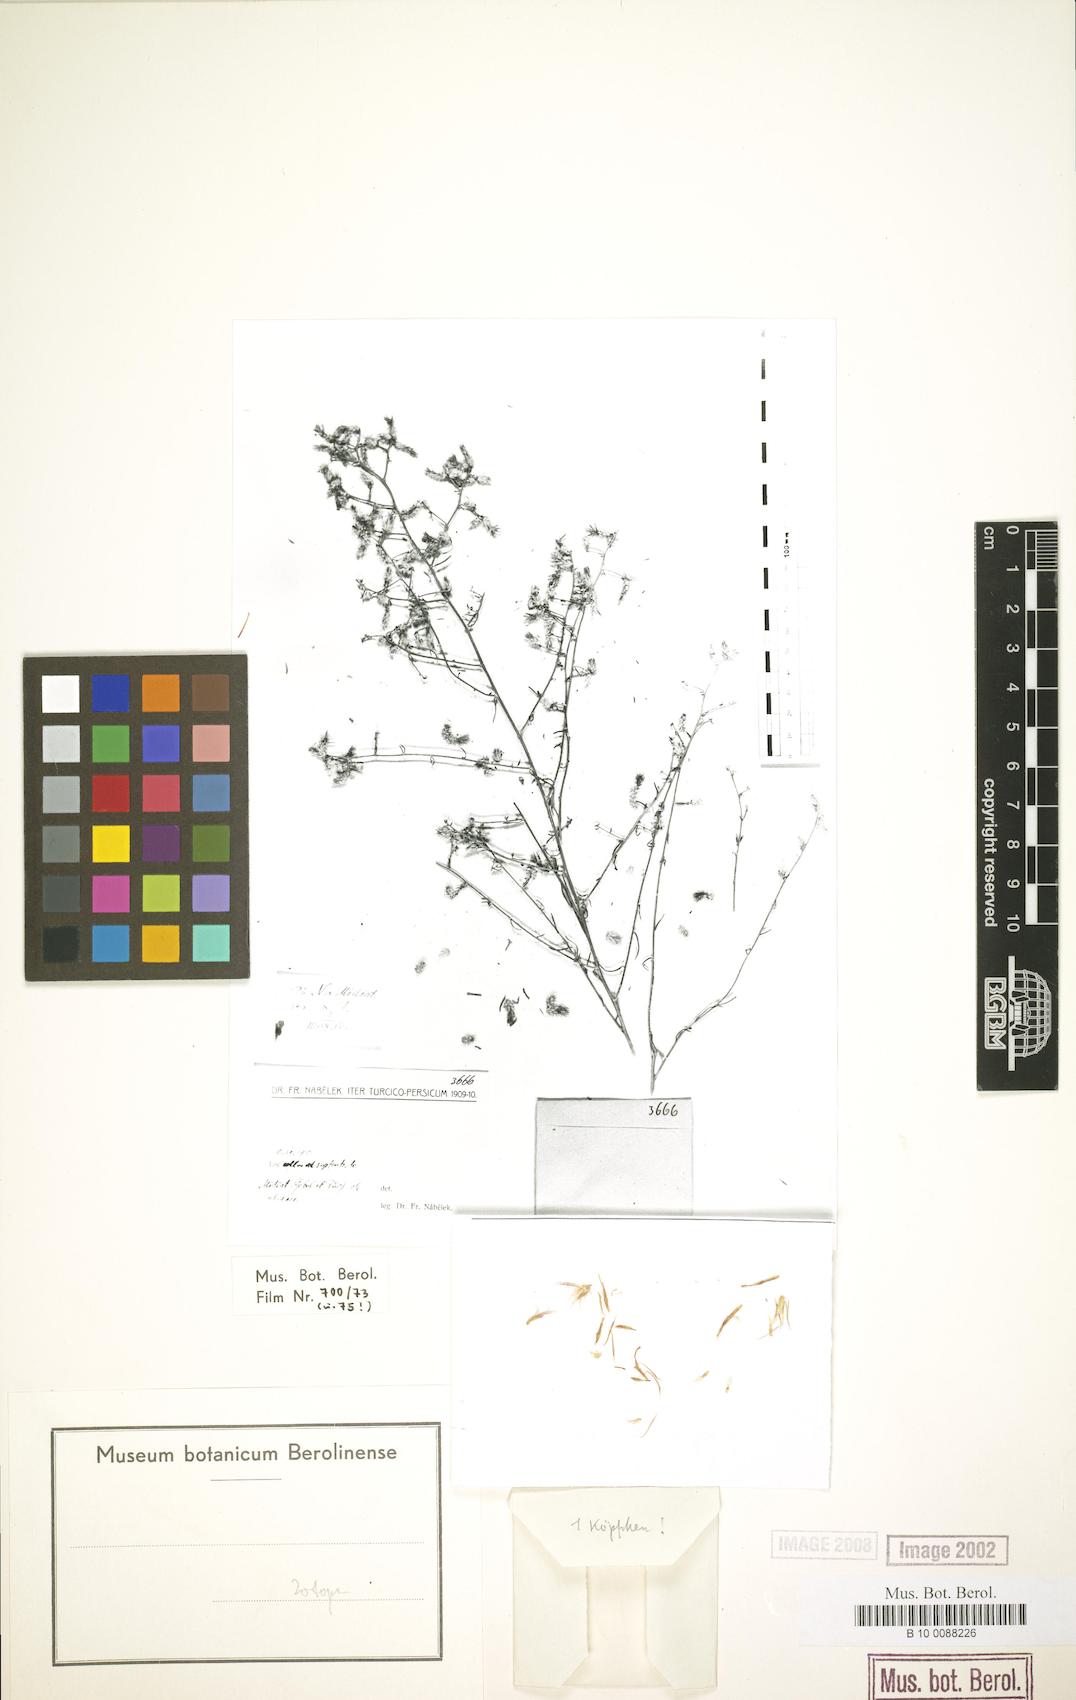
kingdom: Plantae
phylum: Tracheophyta
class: Magnoliopsida
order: Asterales
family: Asteraceae
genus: Centaurea
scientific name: Centaurea glaphyrocephala
